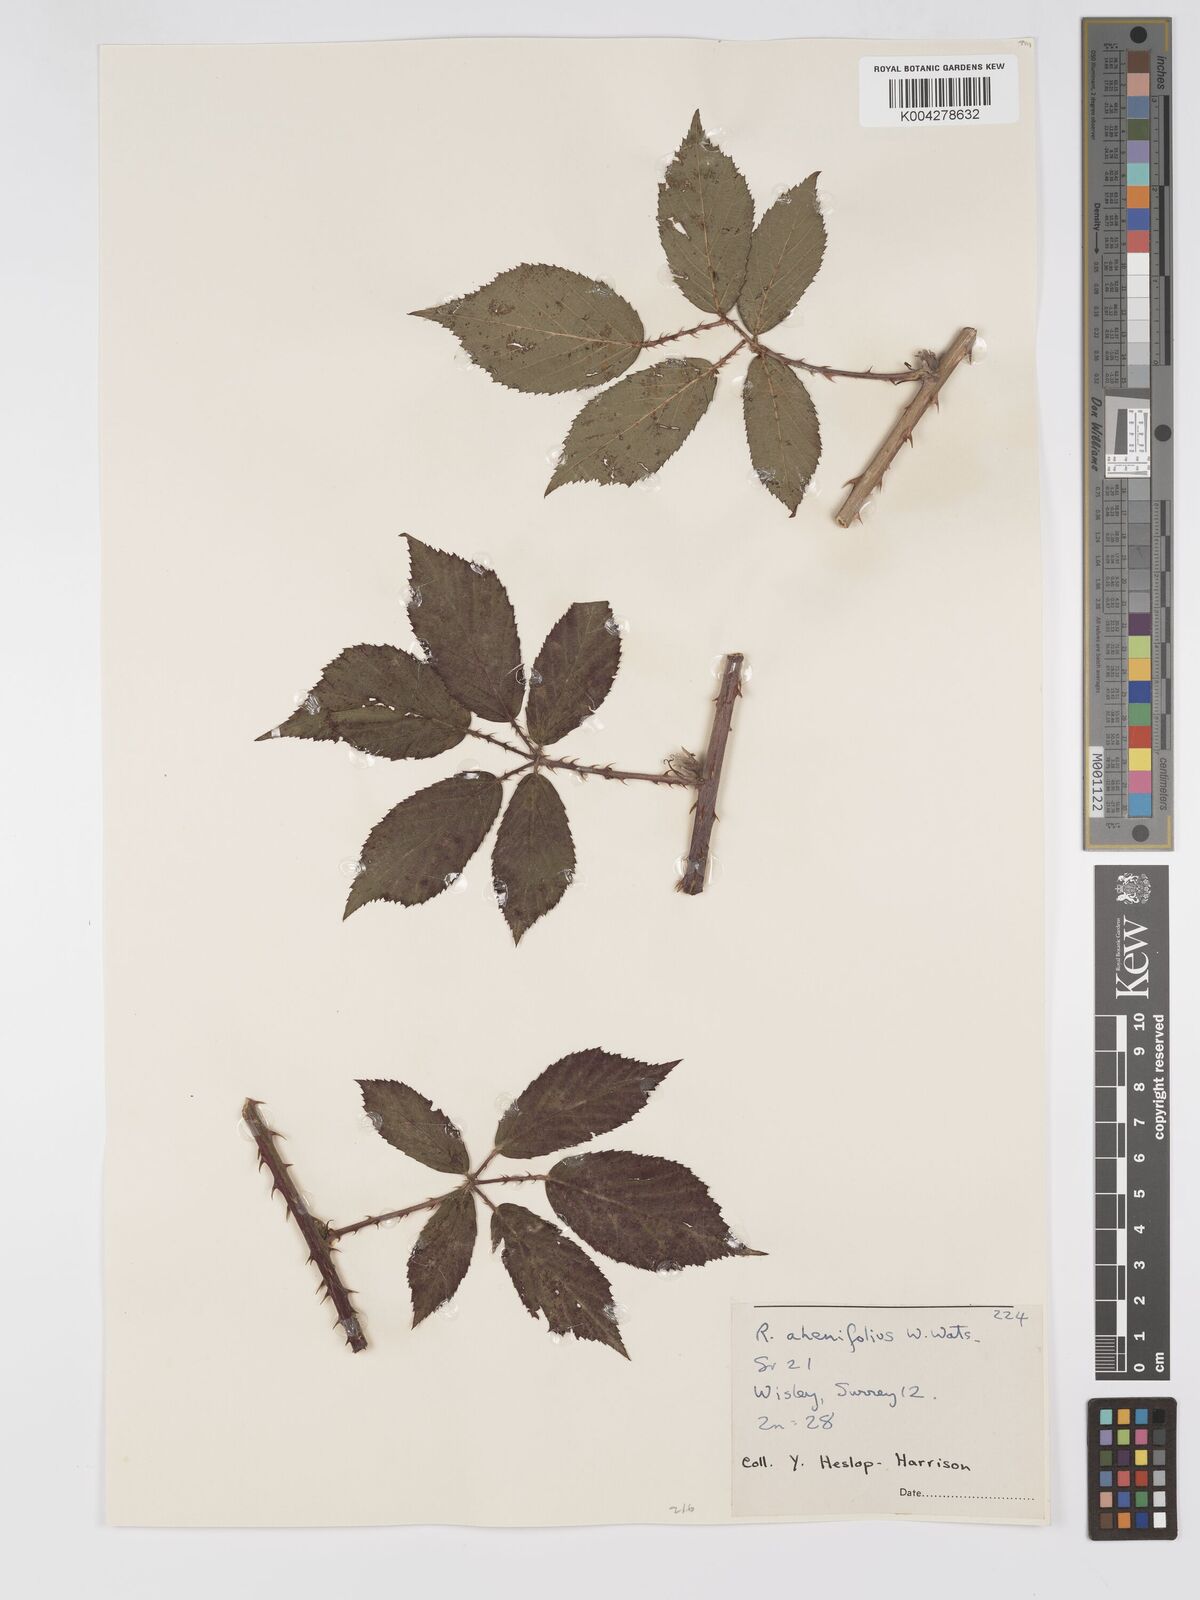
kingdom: Plantae
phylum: Tracheophyta
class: Magnoliopsida
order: Rosales
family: Rosaceae
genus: Rubus
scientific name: Rubus ahenifolius
